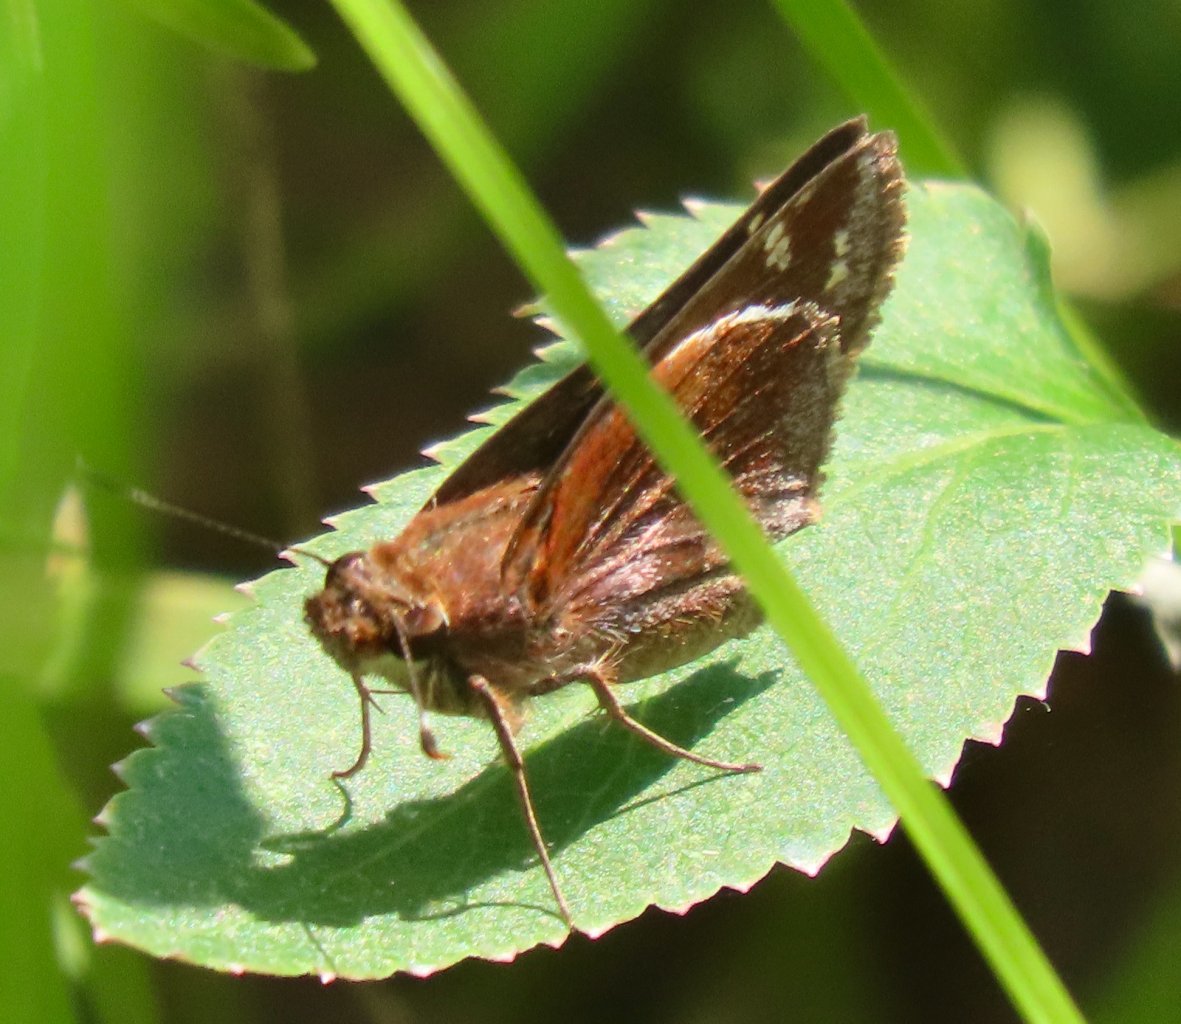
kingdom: Animalia
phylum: Arthropoda
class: Insecta
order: Lepidoptera
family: Hesperiidae
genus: Lon
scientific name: Lon zabulon
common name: Zabulon Skipper
